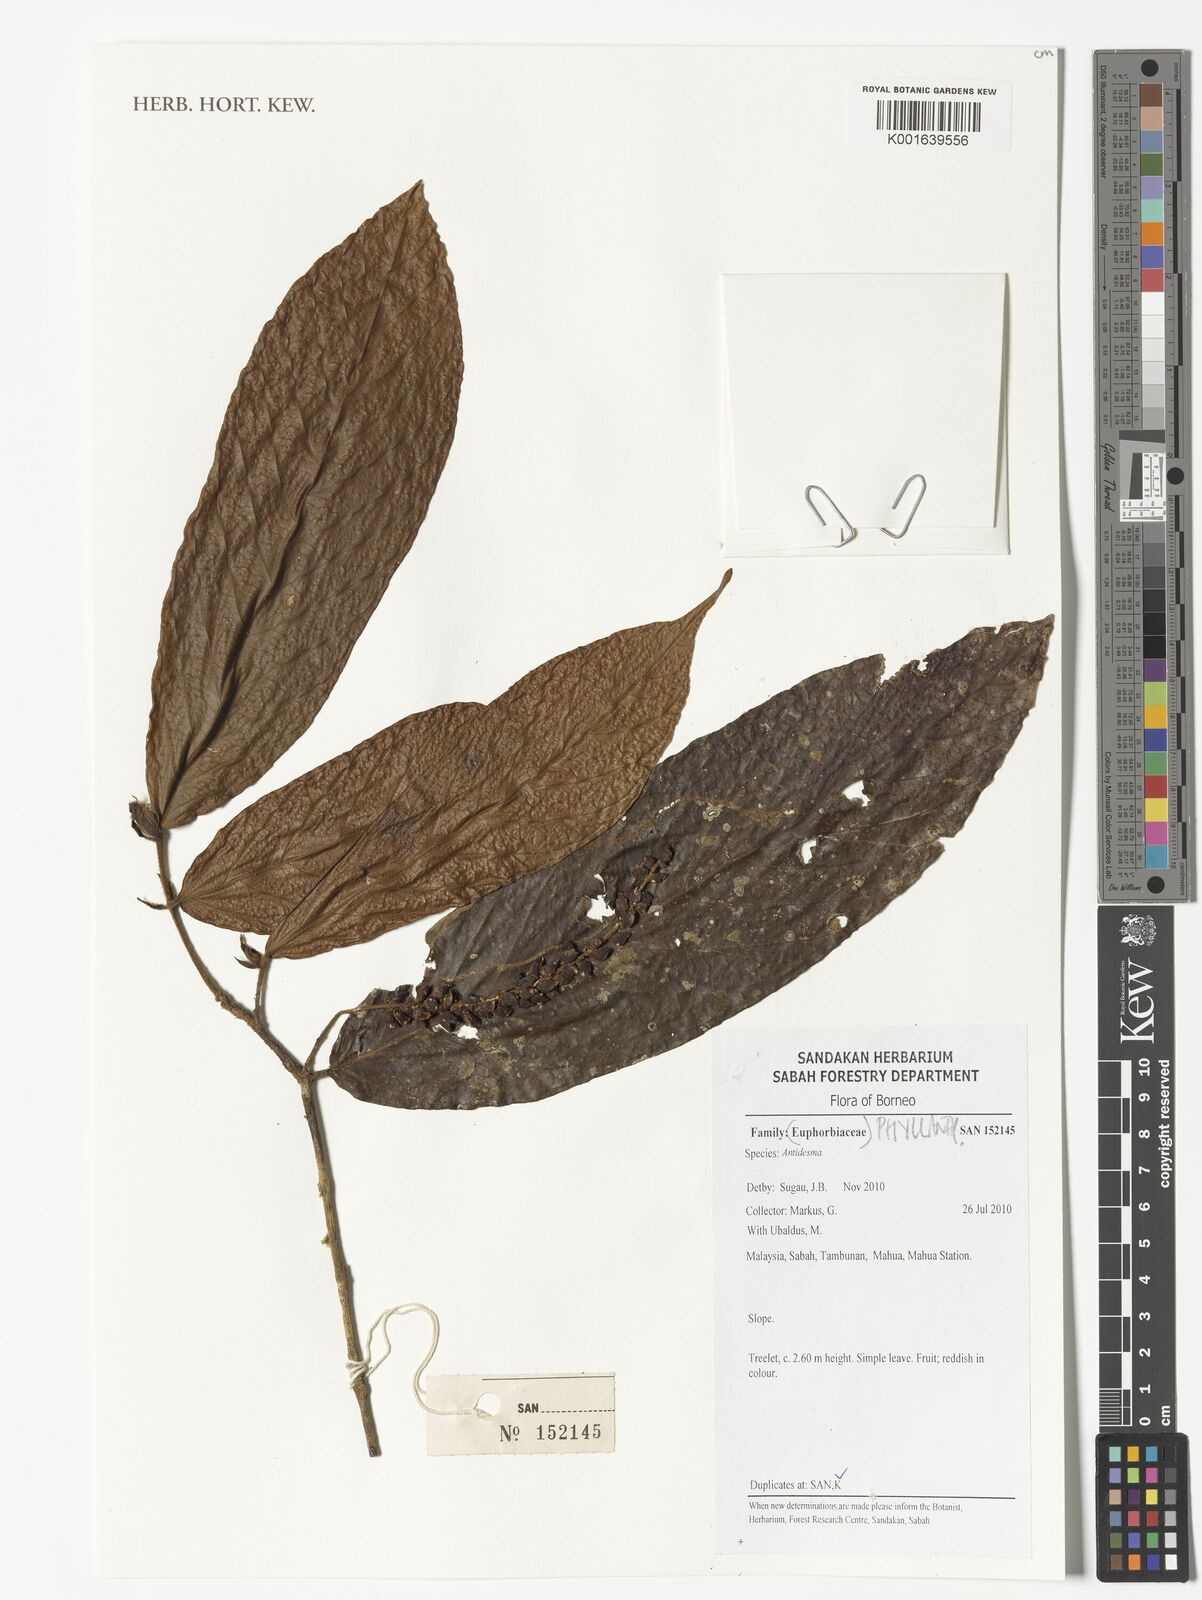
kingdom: Plantae
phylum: Tracheophyta
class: Magnoliopsida
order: Malpighiales
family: Phyllanthaceae
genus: Antidesma
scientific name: Antidesma
